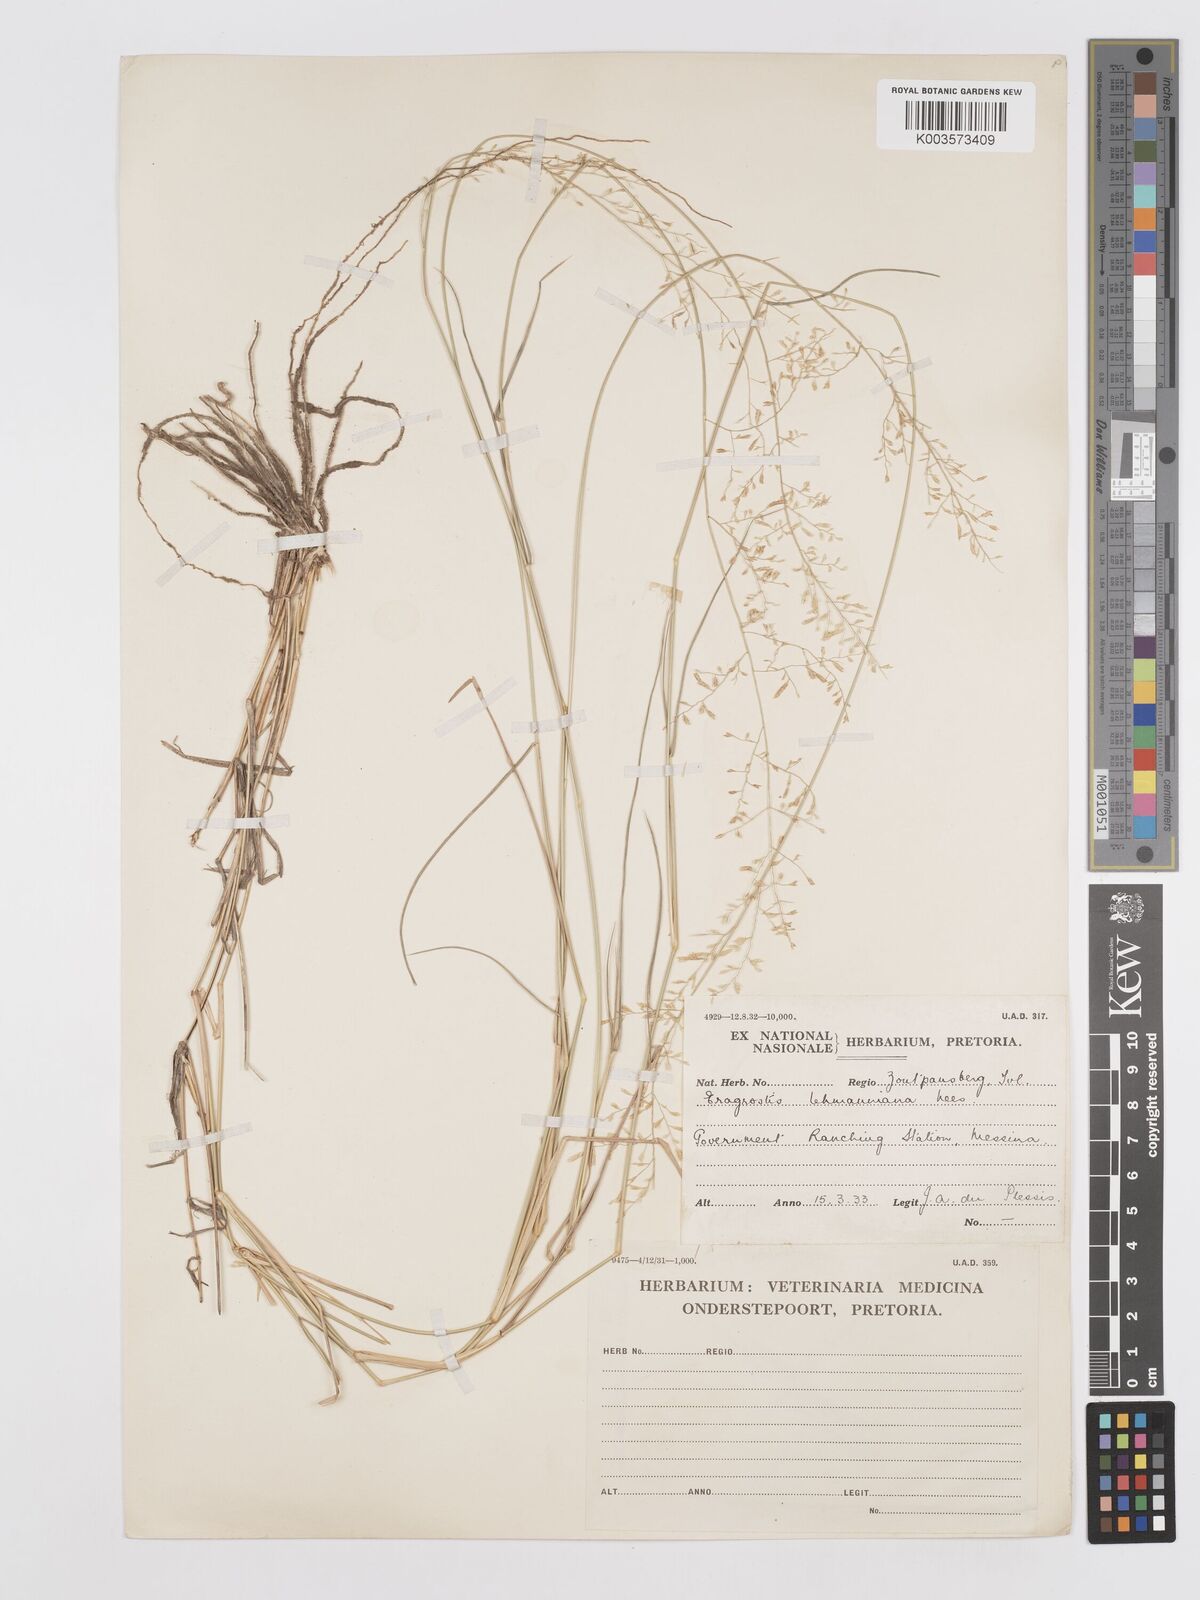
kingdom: Plantae
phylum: Tracheophyta
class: Liliopsida
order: Poales
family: Poaceae
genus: Eragrostis
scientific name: Eragrostis lehmanniana
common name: Lehmann lovegrass
